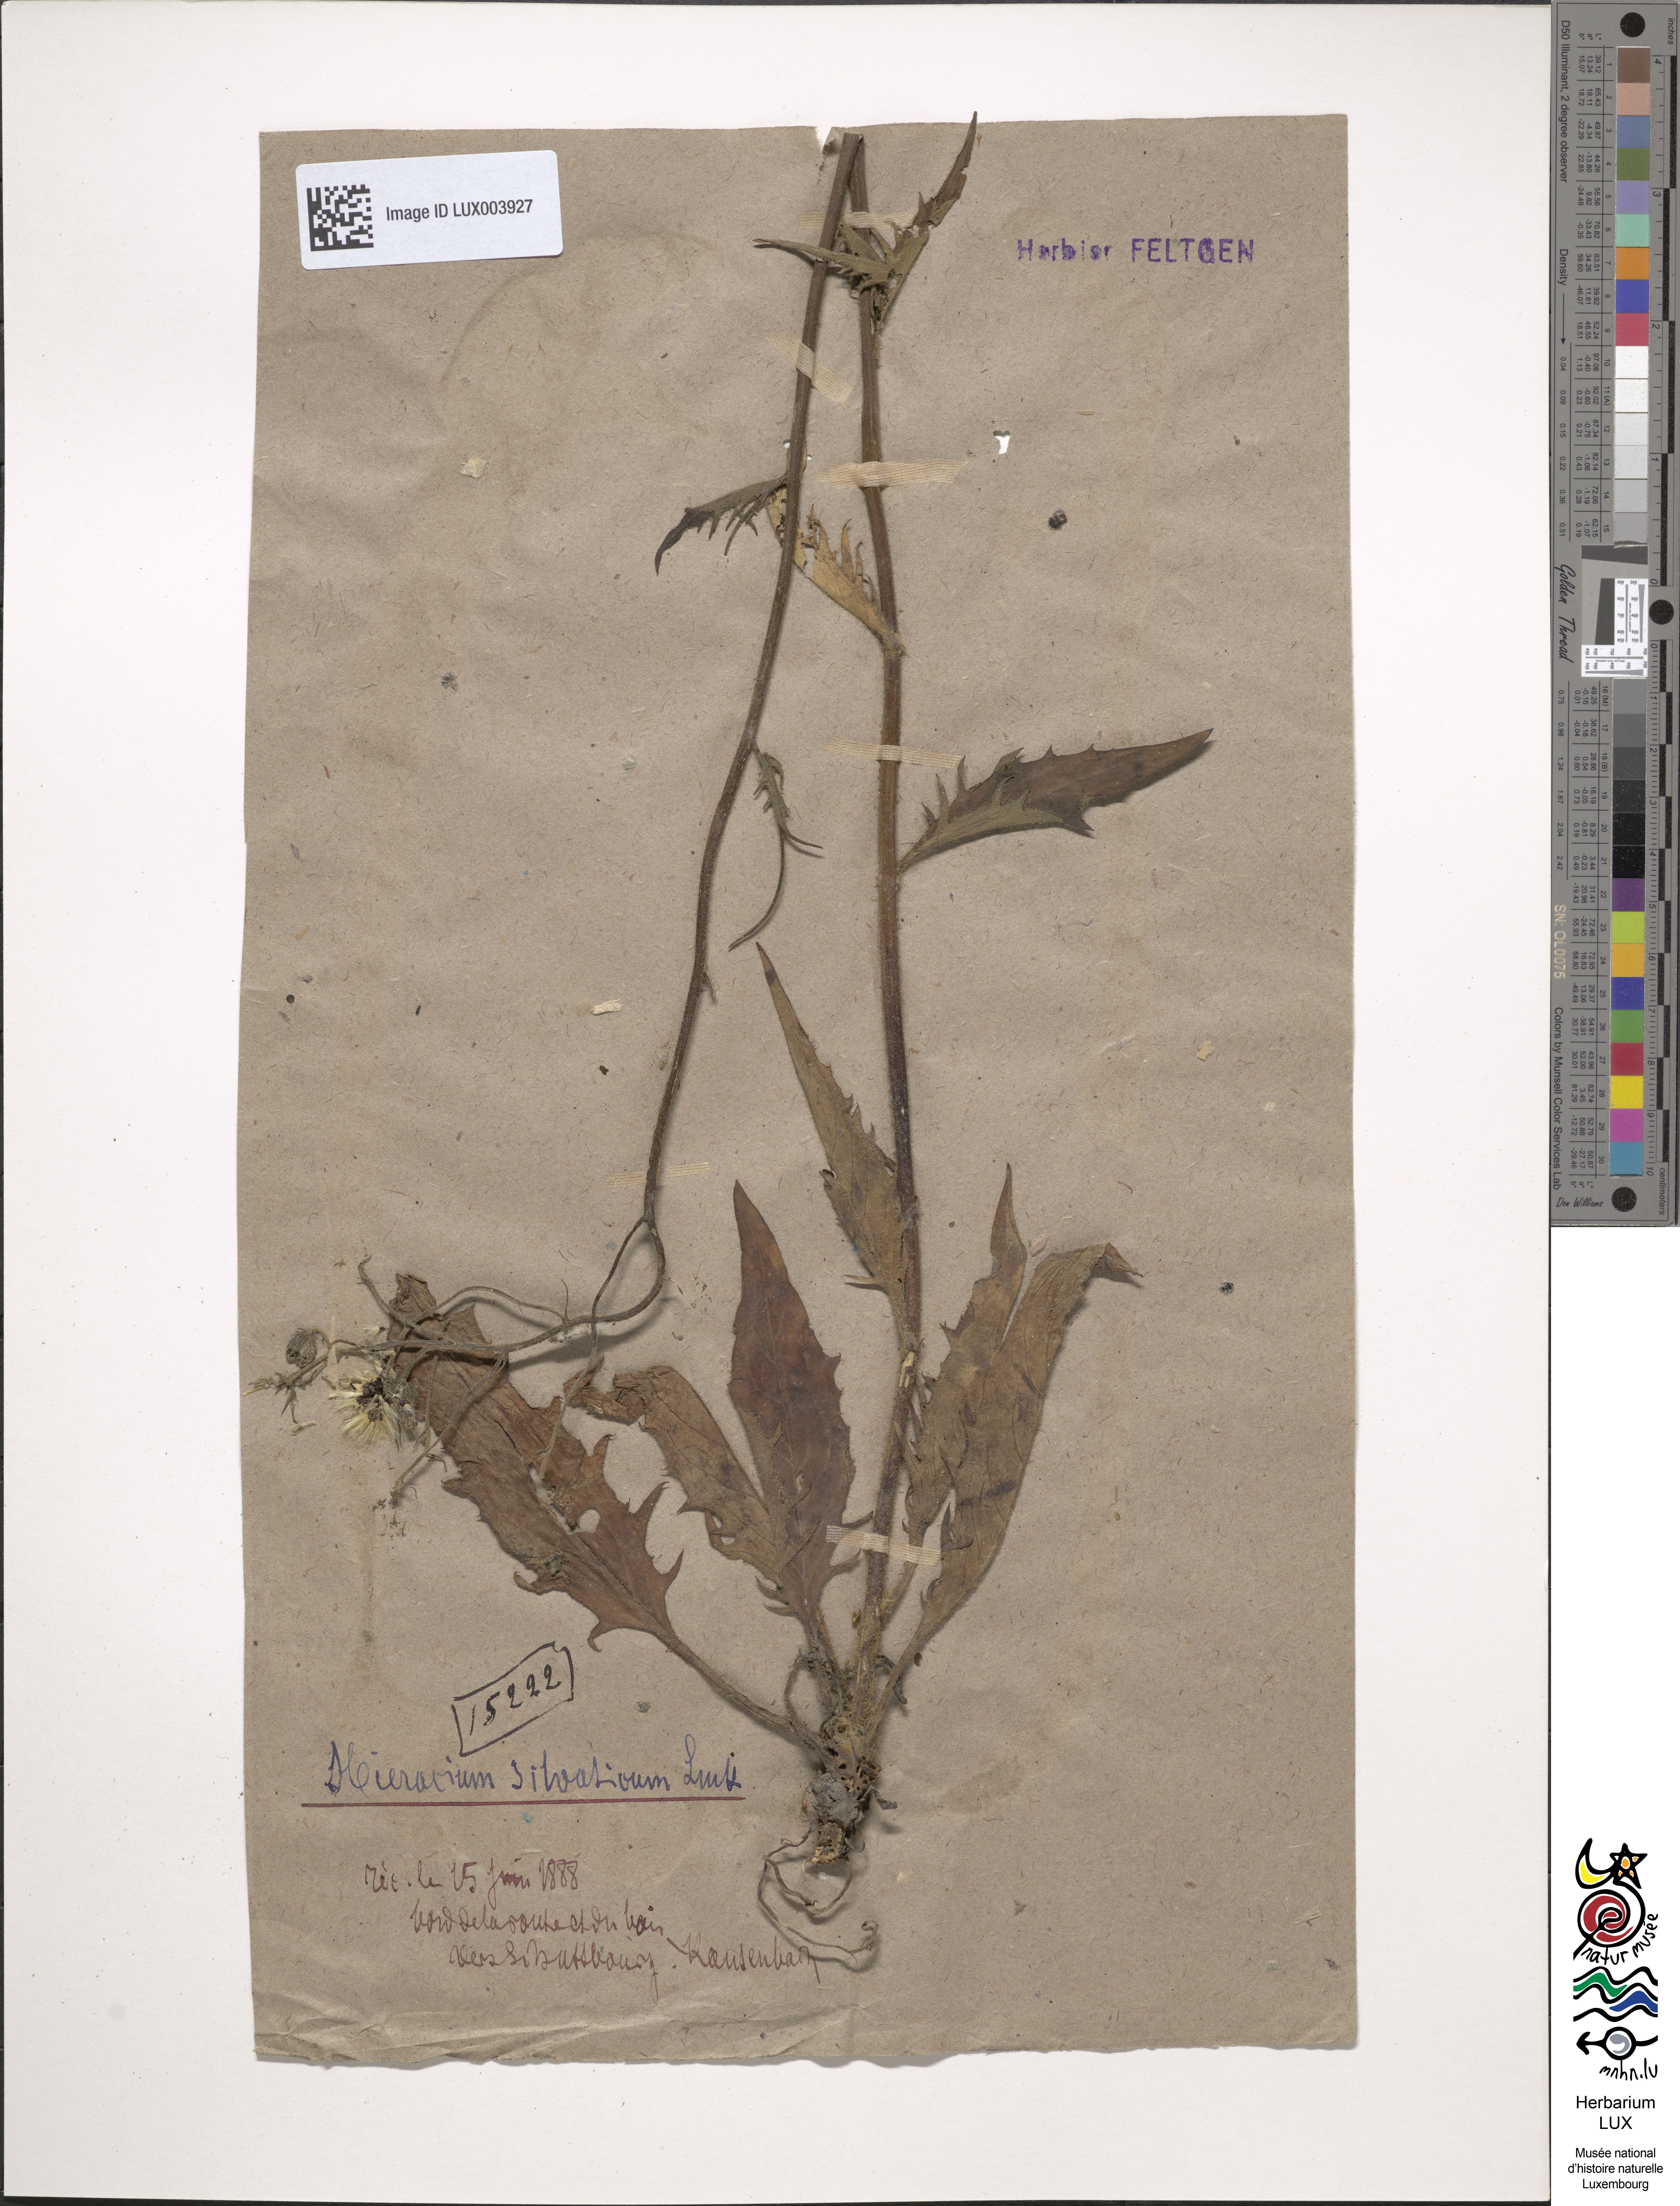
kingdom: Plantae
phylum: Tracheophyta
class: Magnoliopsida
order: Asterales
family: Asteraceae
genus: Hieracium
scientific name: Hieracium murorum
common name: Wall hawkweed
